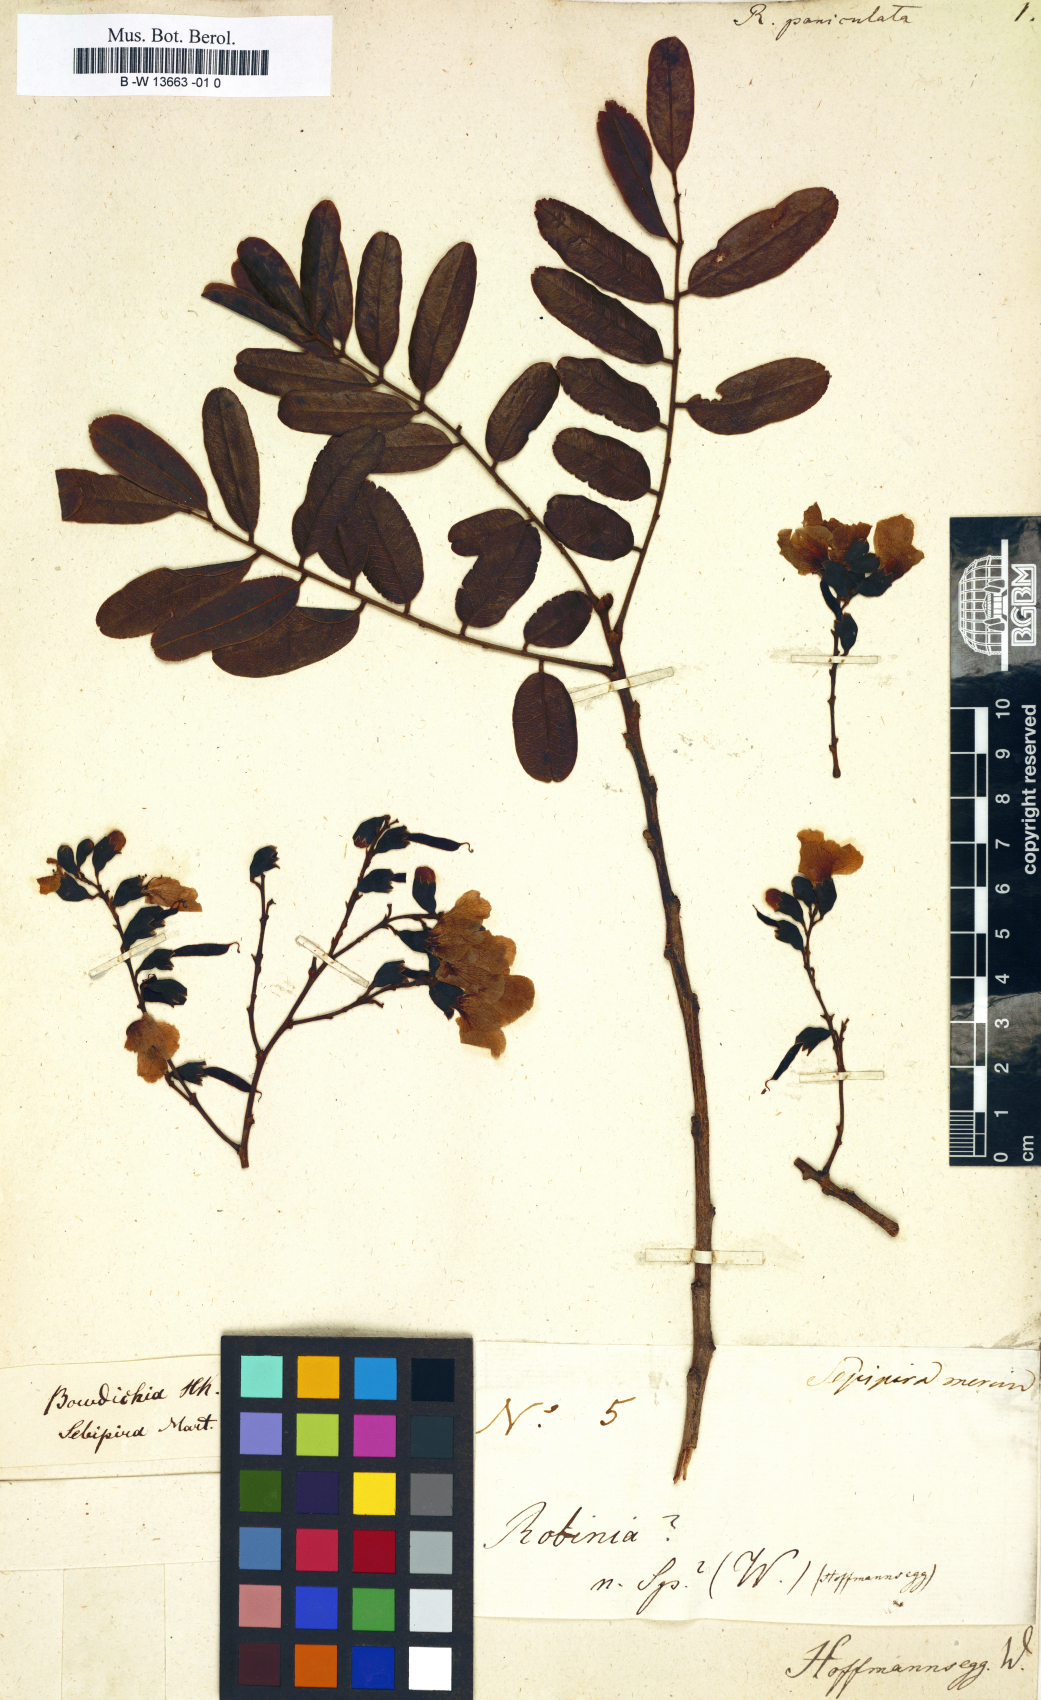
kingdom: Plantae
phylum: Tracheophyta
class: Magnoliopsida
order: Fabales
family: Fabaceae
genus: Robinia
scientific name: Robinia
